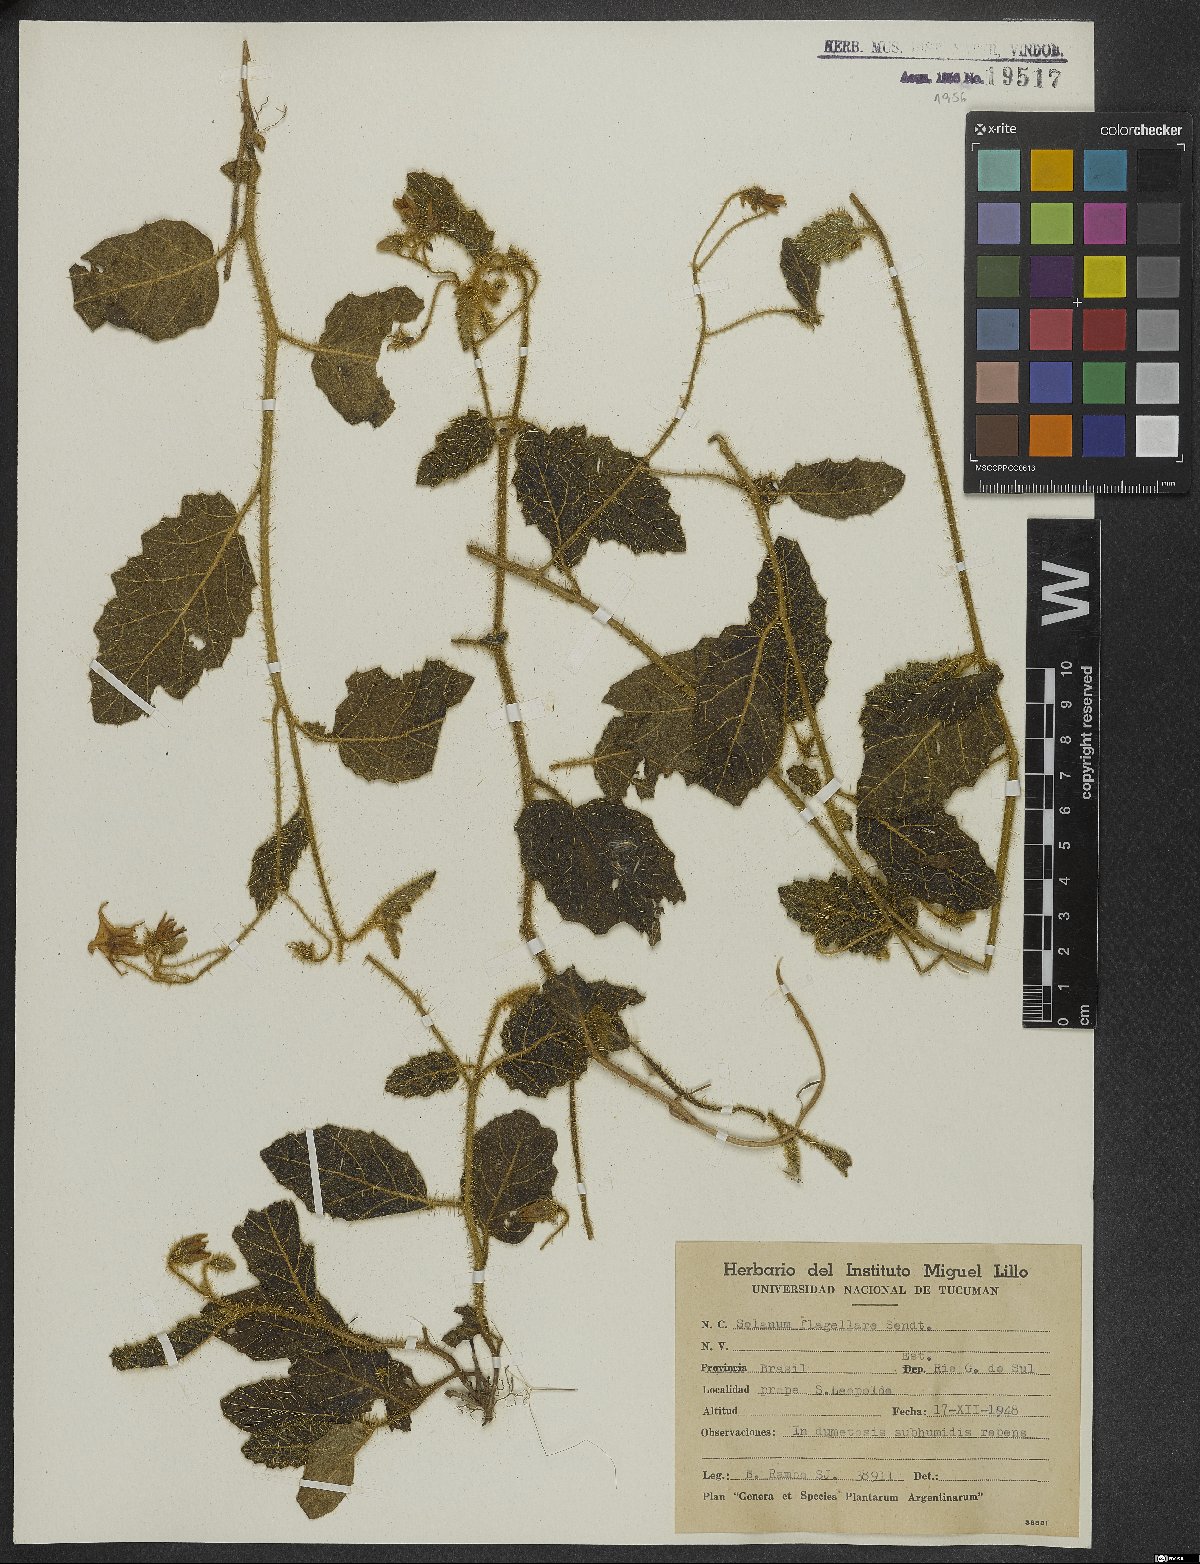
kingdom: Plantae
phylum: Tracheophyta
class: Magnoliopsida
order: Solanales
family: Solanaceae
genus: Solanum
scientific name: Solanum flagellare
